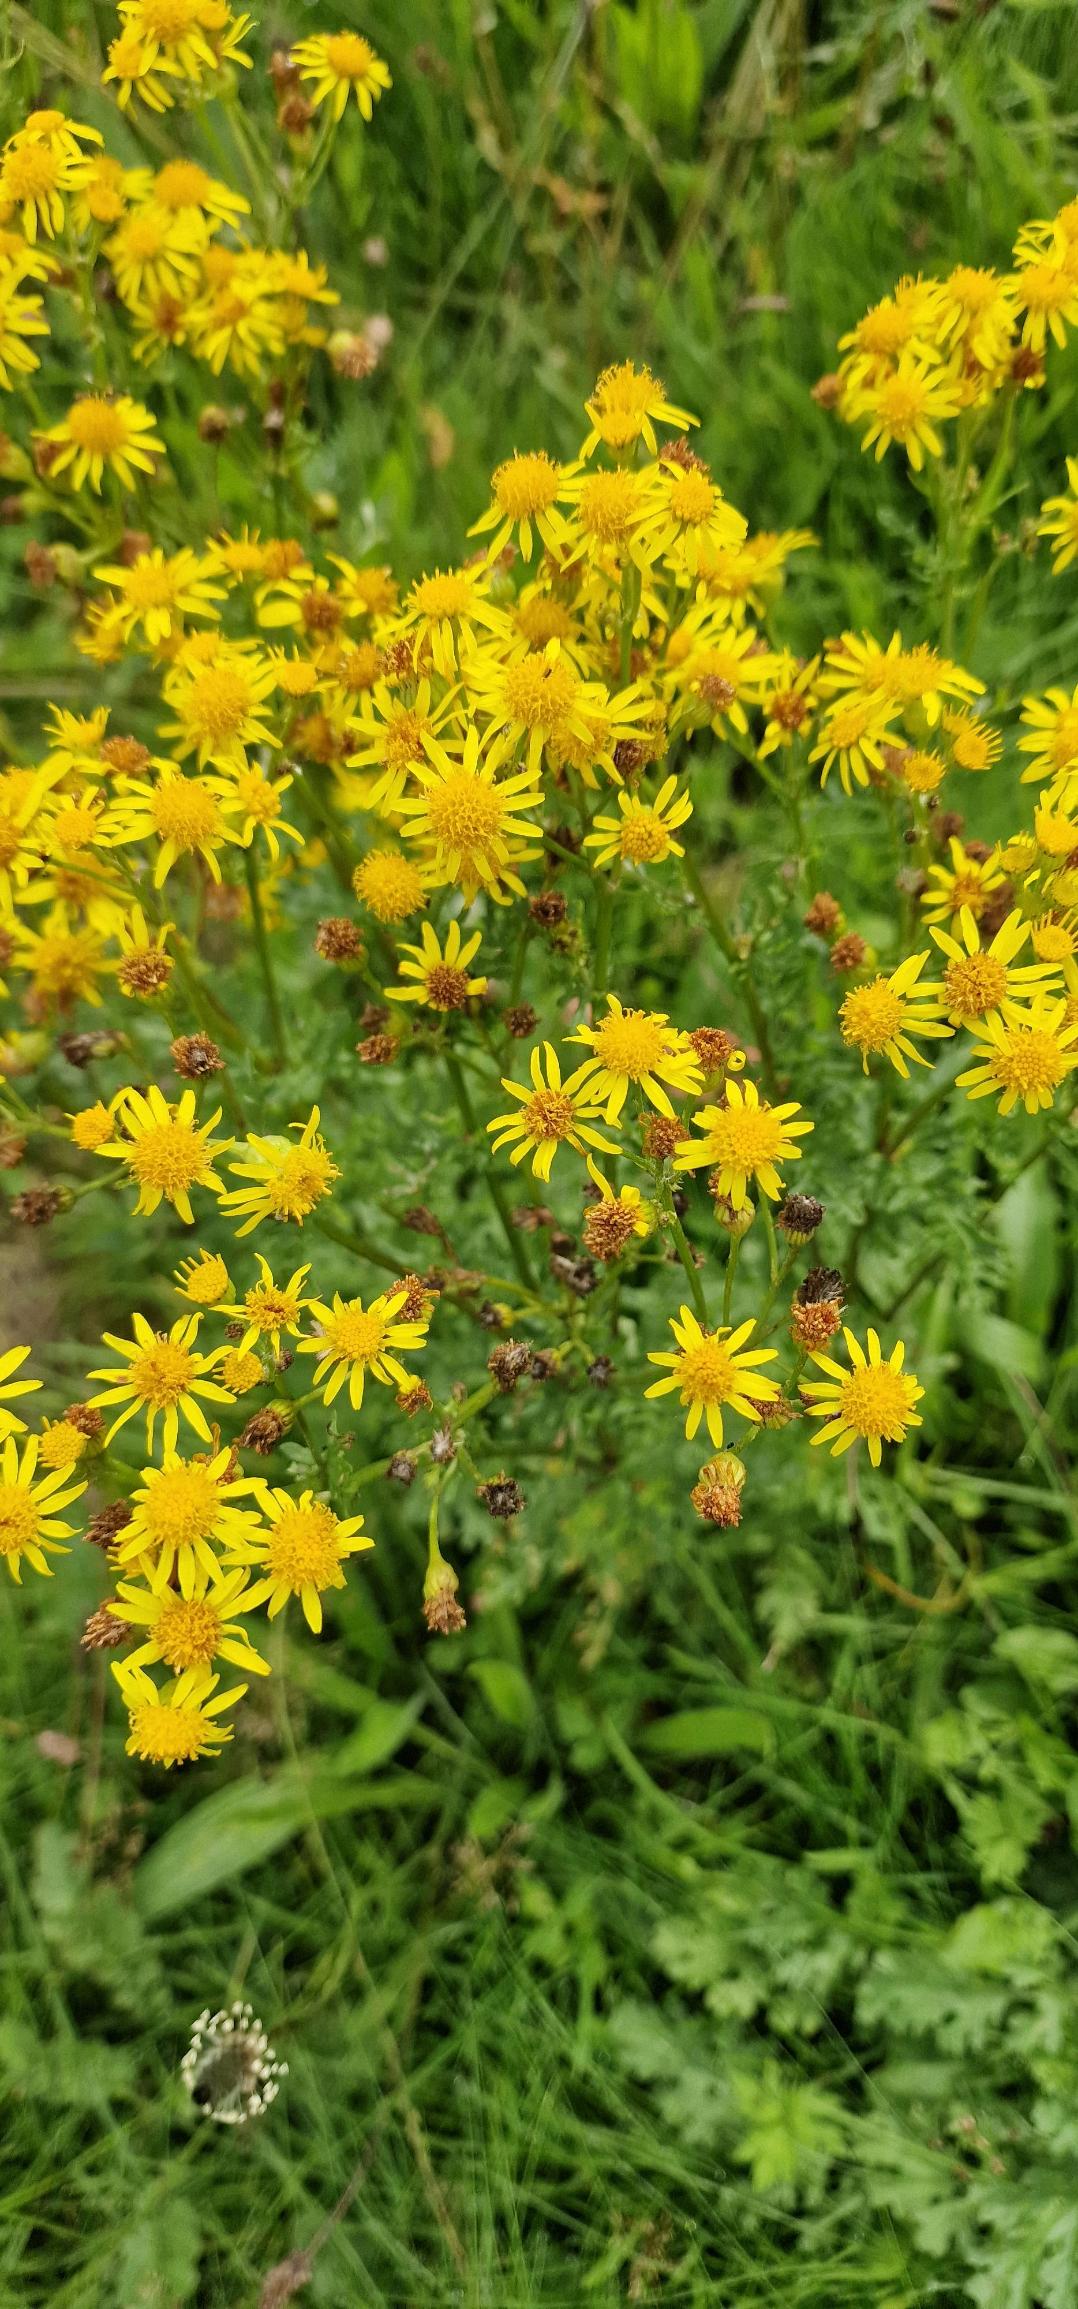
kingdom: Plantae
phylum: Tracheophyta
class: Magnoliopsida
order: Asterales
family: Asteraceae
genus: Jacobaea
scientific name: Jacobaea vulgaris
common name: Eng-brandbæger
